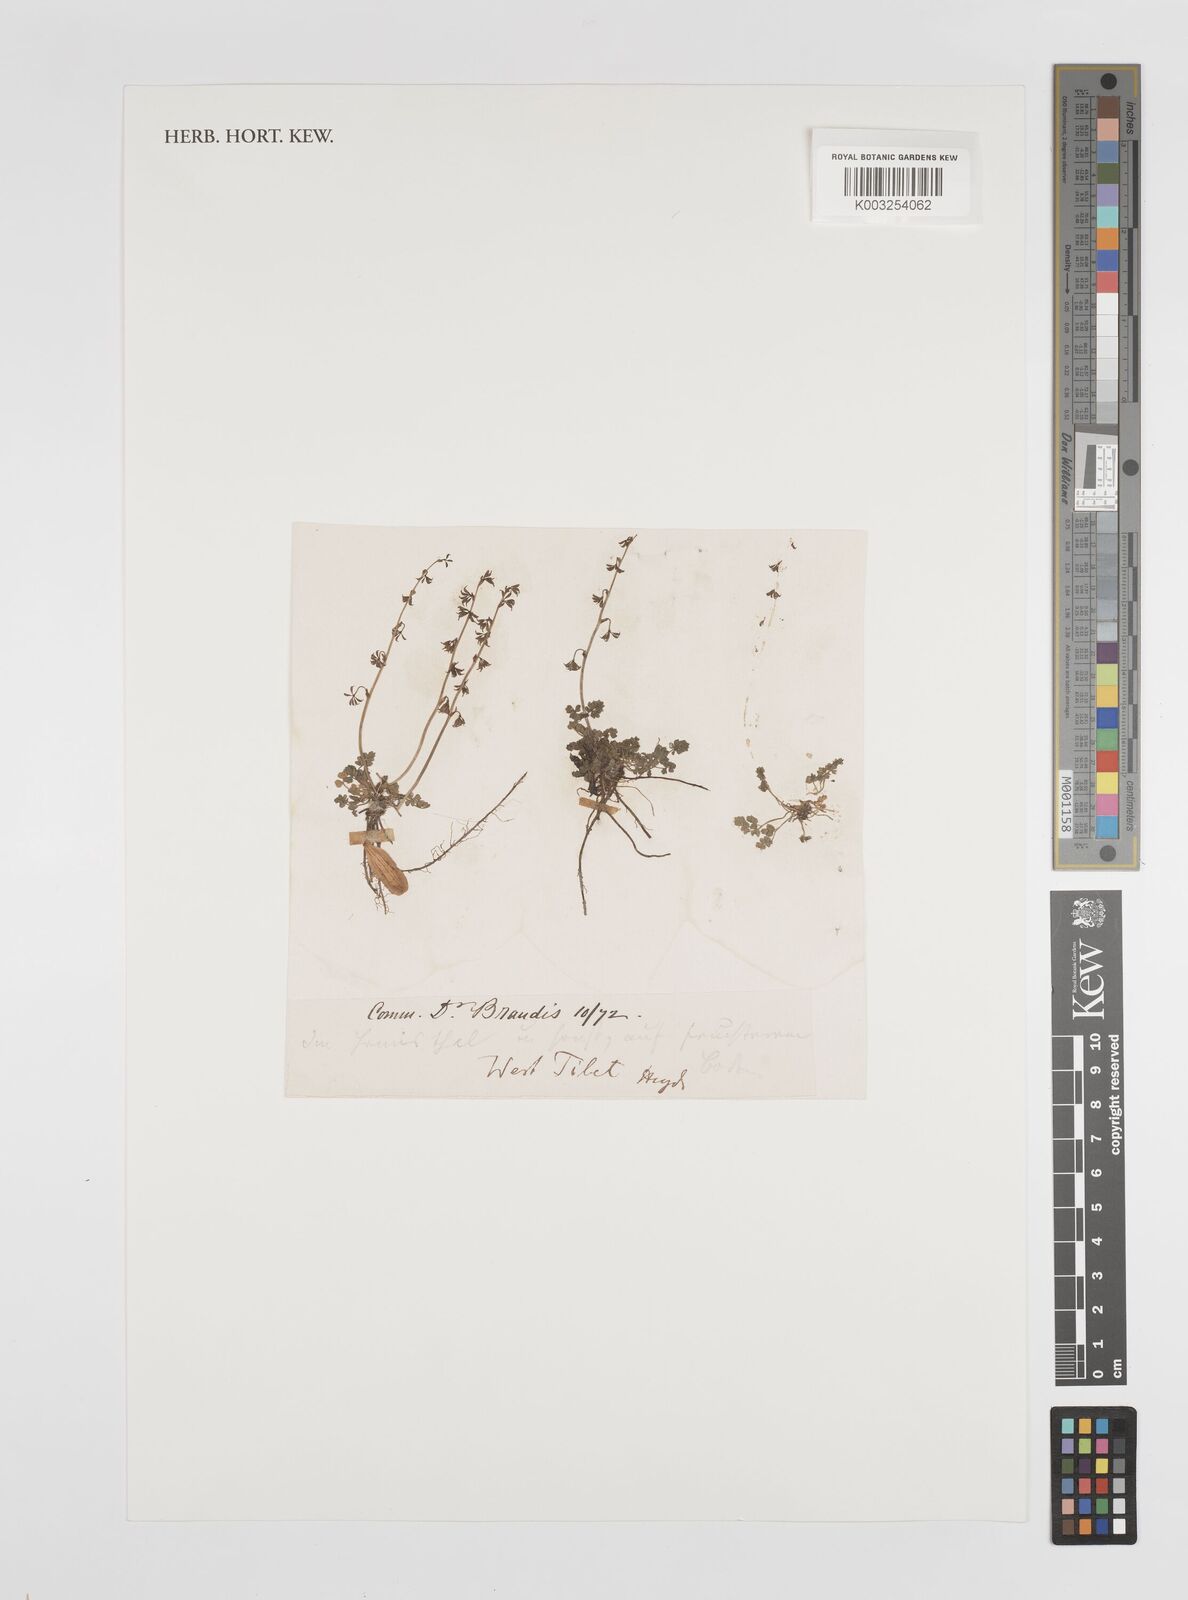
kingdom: Plantae
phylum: Tracheophyta
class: Magnoliopsida
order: Ranunculales
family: Ranunculaceae
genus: Thalictrum
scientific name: Thalictrum alpinum
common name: Alpine meadow-rue
